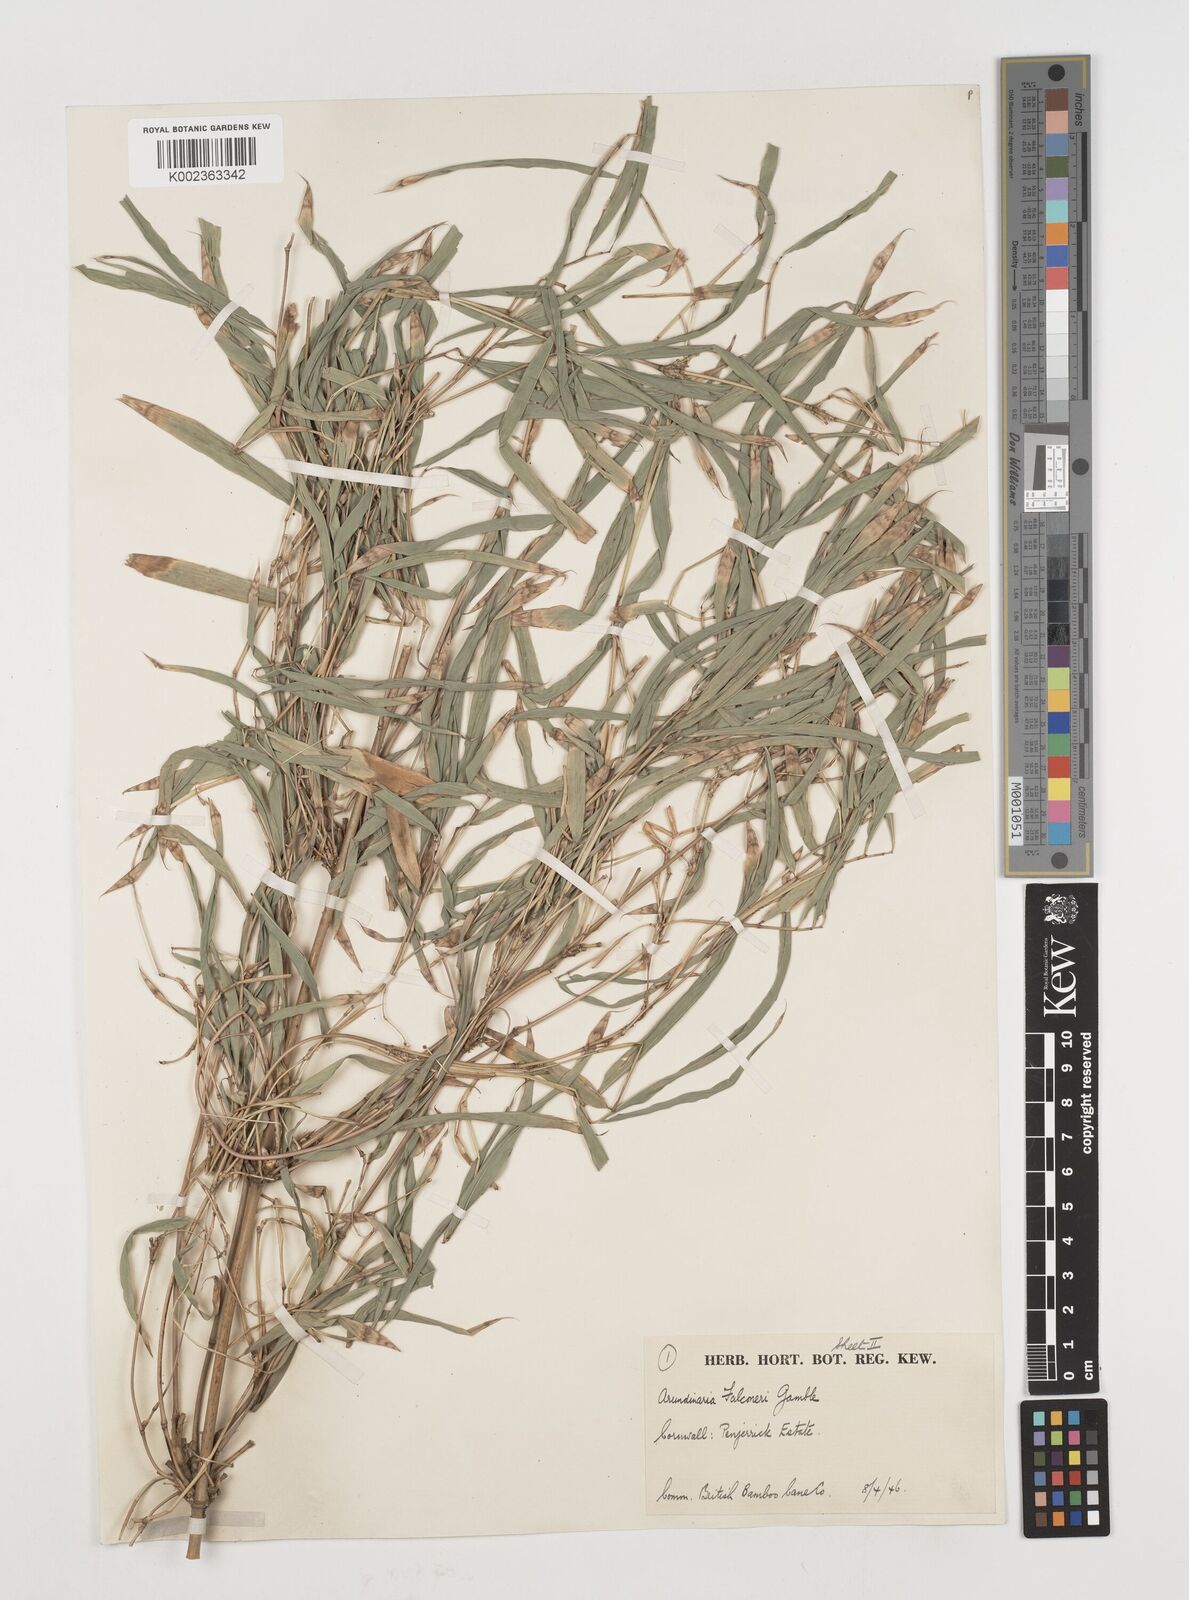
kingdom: Plantae
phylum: Tracheophyta
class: Liliopsida
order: Poales
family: Poaceae
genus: Himalayacalamus
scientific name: Himalayacalamus falconeri
